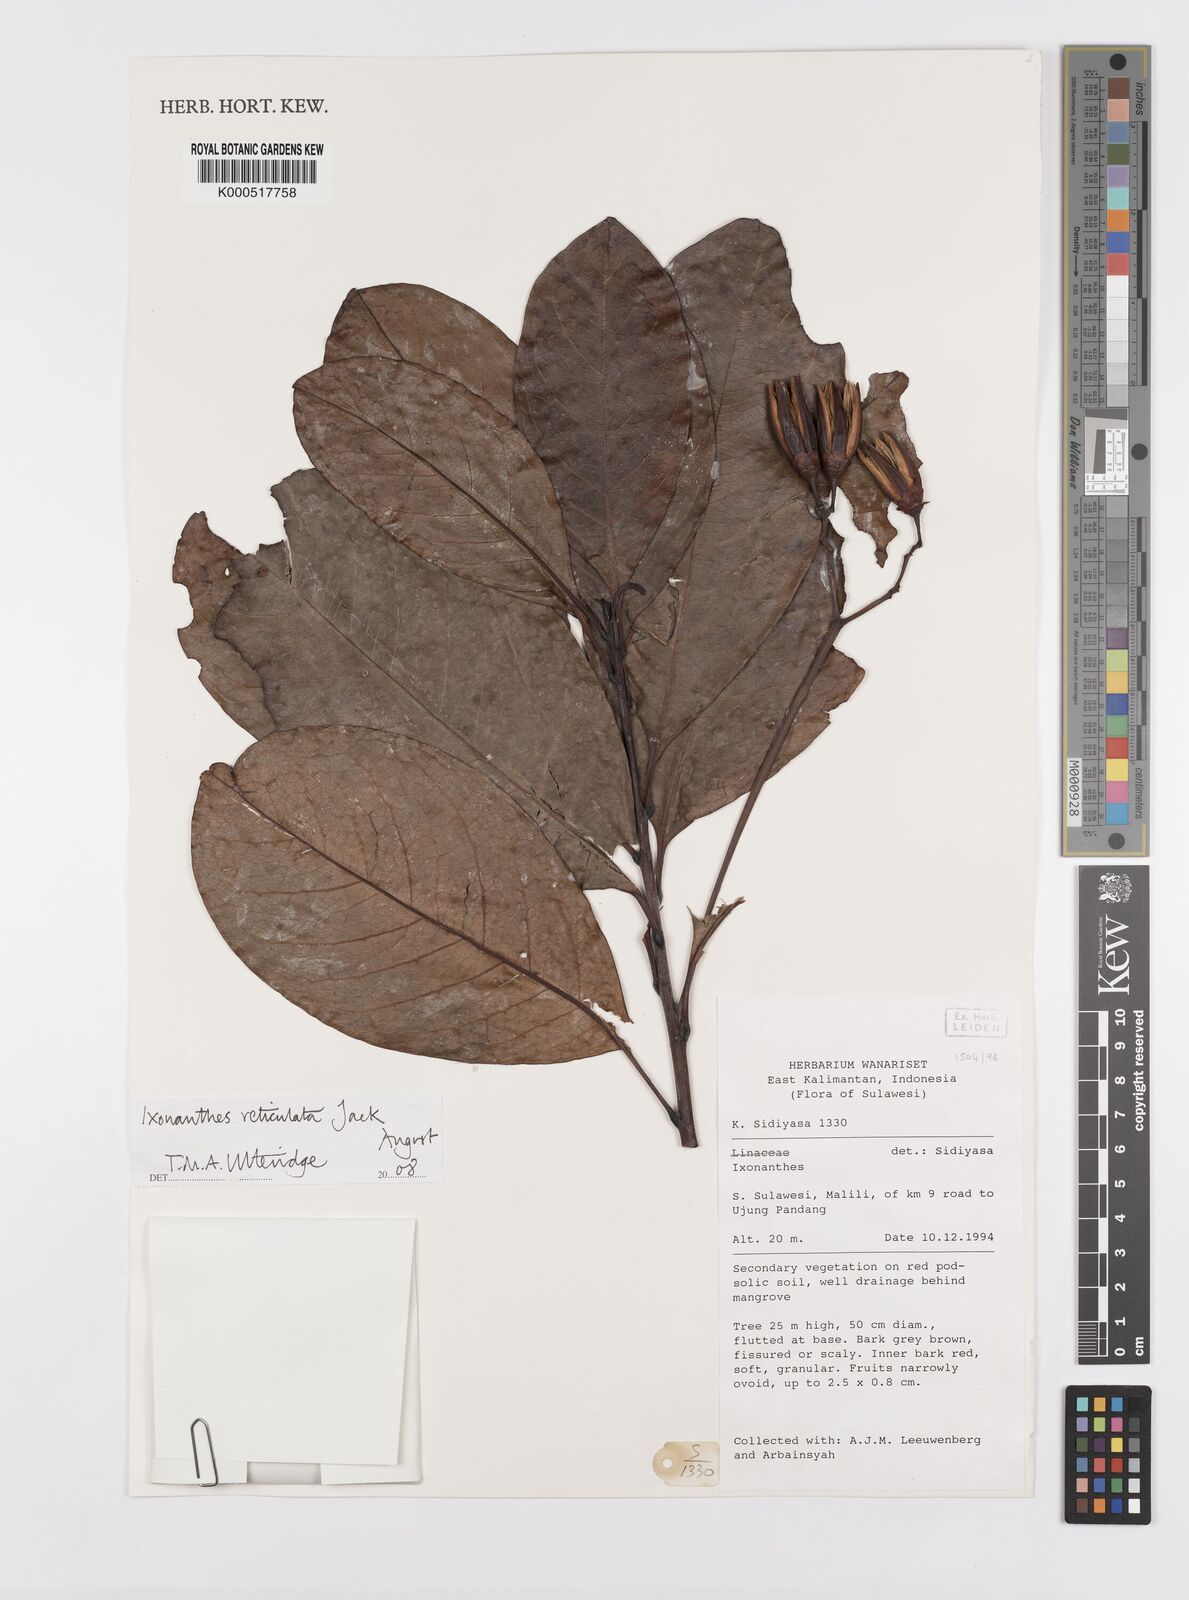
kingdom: Plantae
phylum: Tracheophyta
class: Magnoliopsida
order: Malpighiales
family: Ixonanthaceae
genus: Ixonanthes
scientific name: Ixonanthes reticulata
